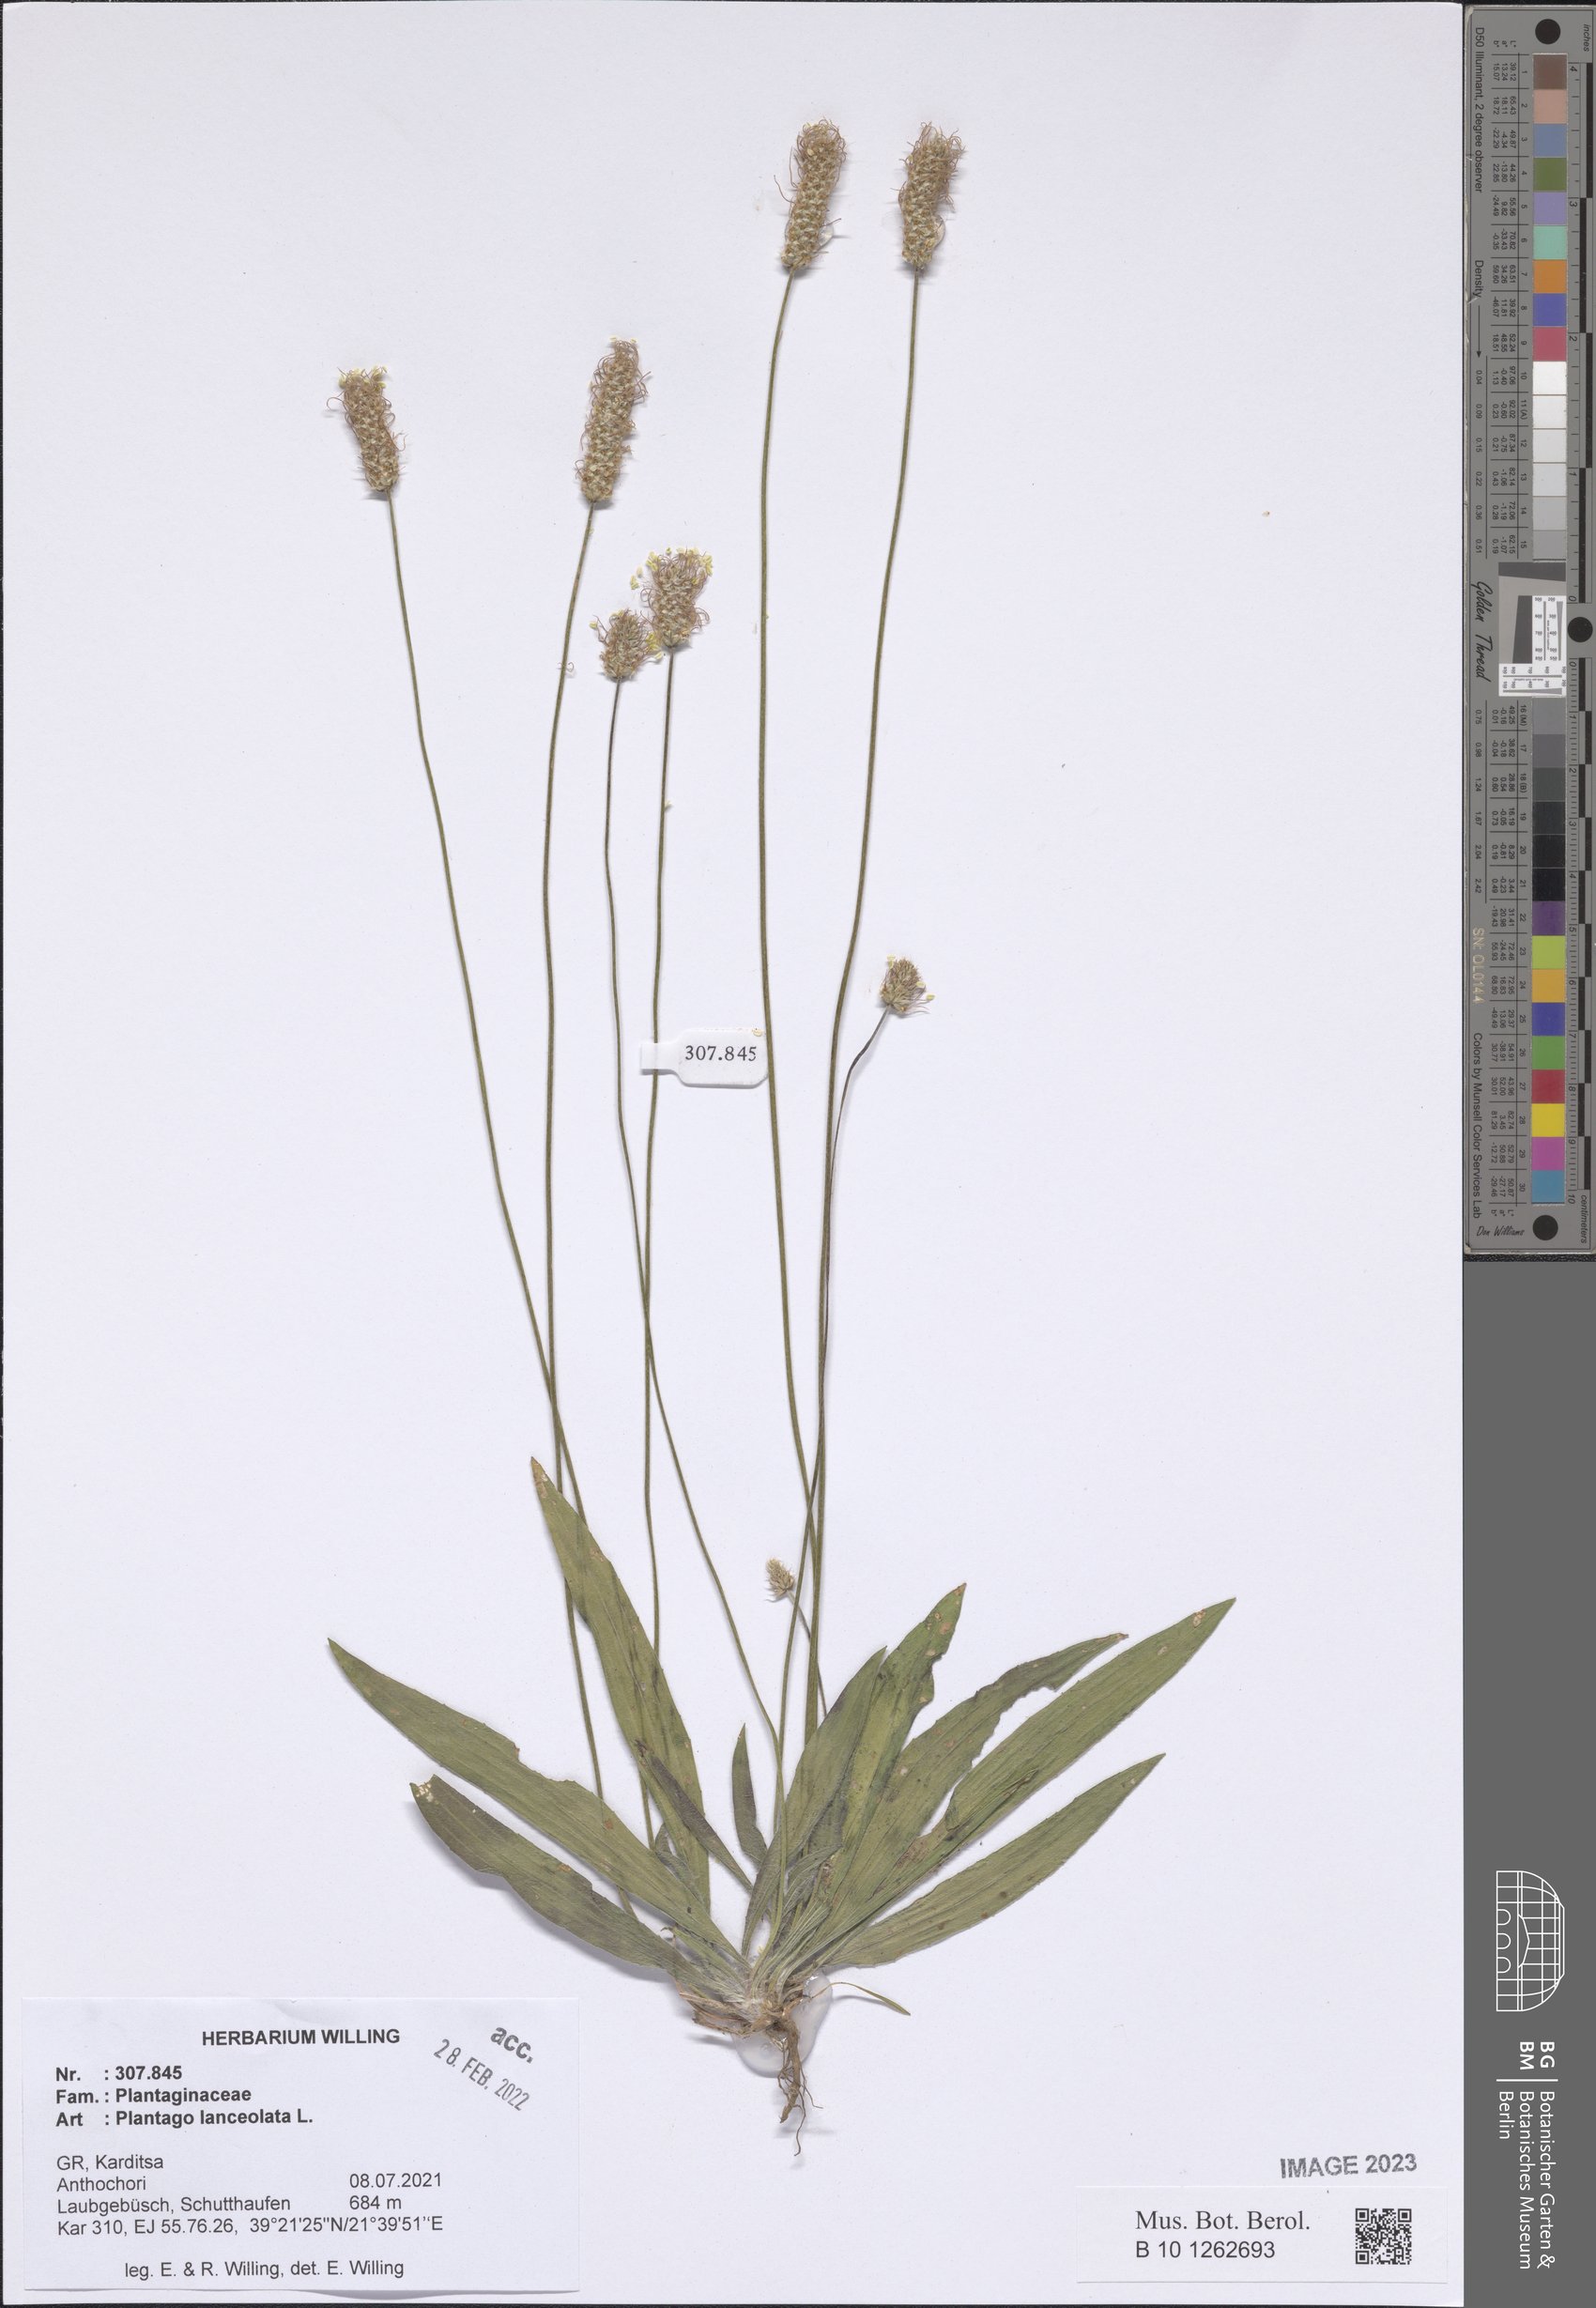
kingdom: Plantae
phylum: Tracheophyta
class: Magnoliopsida
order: Lamiales
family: Plantaginaceae
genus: Plantago
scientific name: Plantago lanceolata
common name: Ribwort plantain
